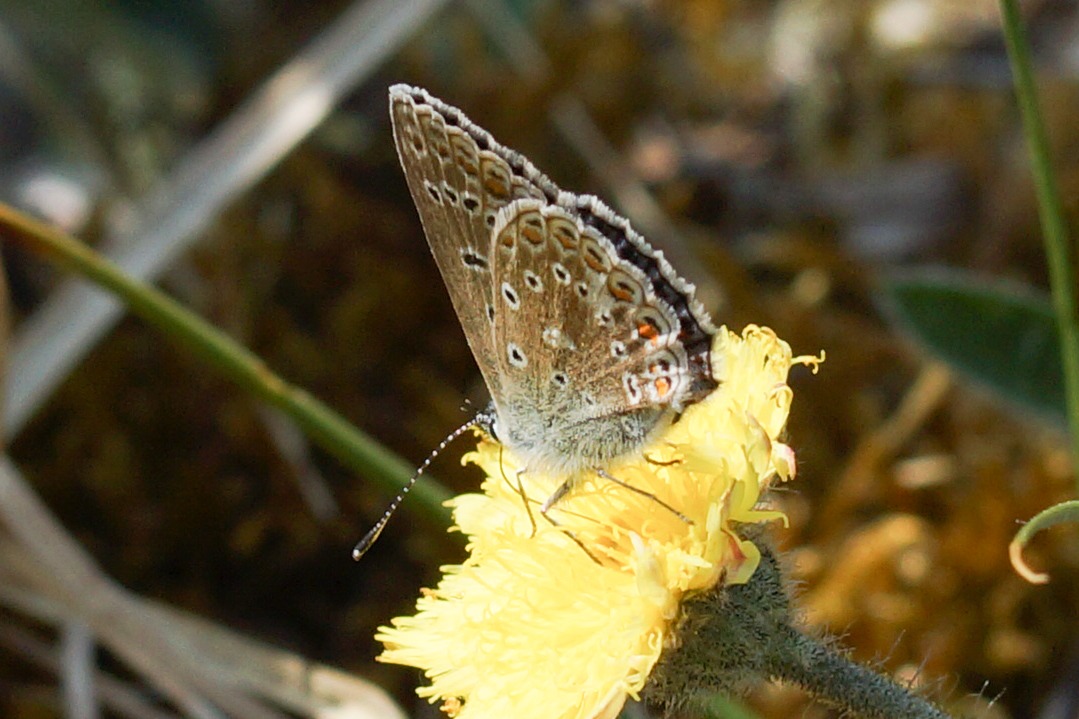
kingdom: Animalia
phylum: Arthropoda
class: Insecta
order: Lepidoptera
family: Lycaenidae
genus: Polyommatus
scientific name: Polyommatus icarus
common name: Almindelig blåfugl
